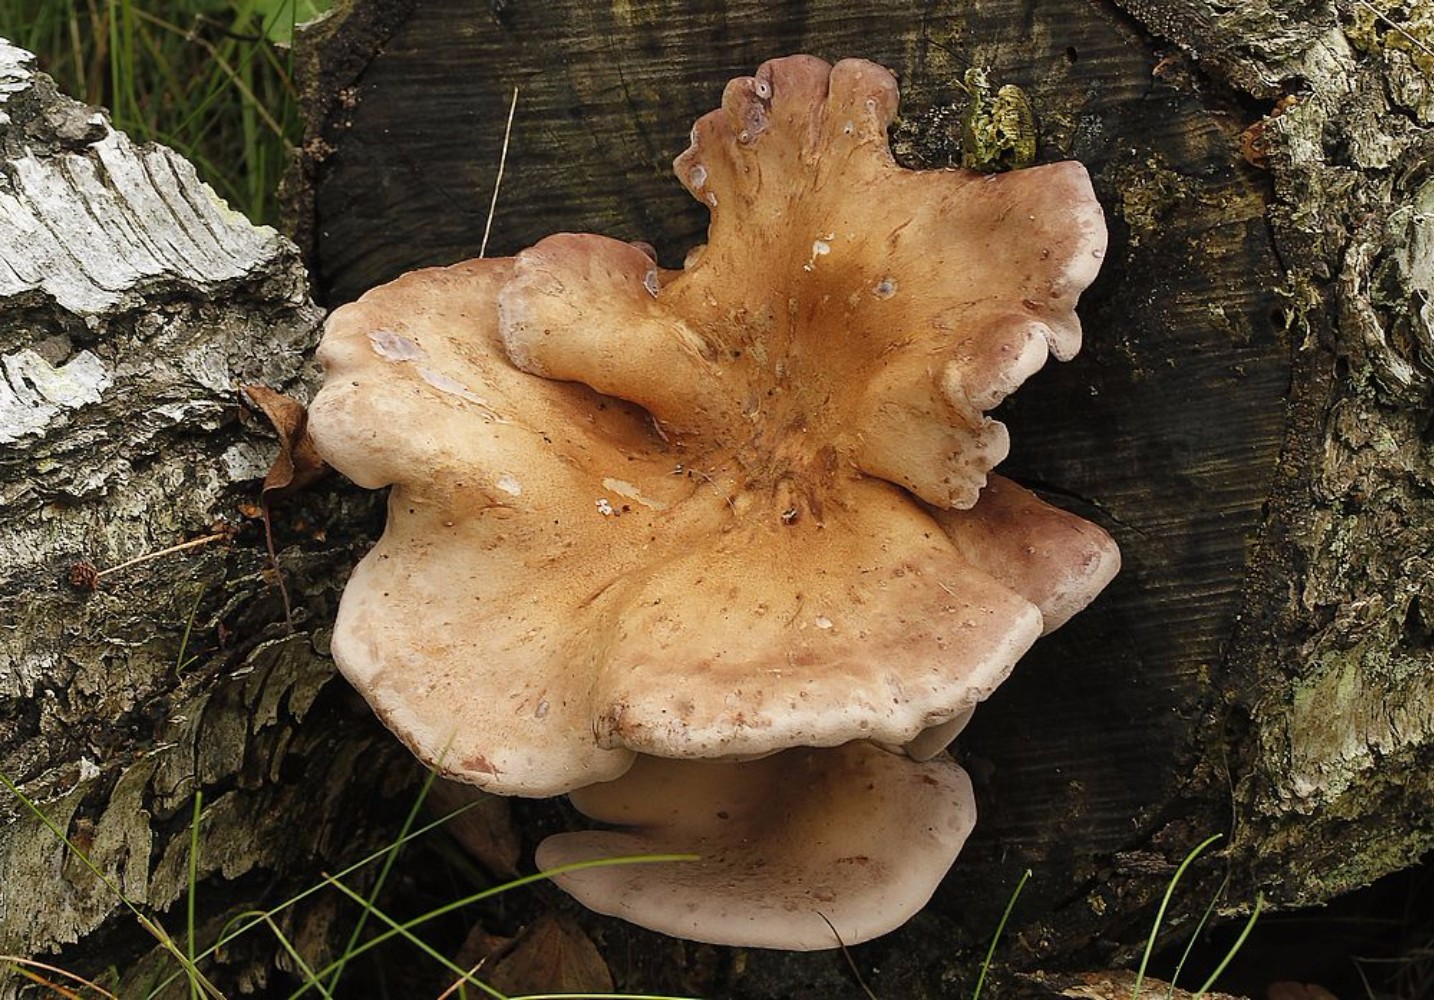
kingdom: Fungi
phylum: Basidiomycota
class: Agaricomycetes
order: Polyporales
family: Panaceae
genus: Panus
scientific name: Panus conchatus
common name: filtstokket læderhat
